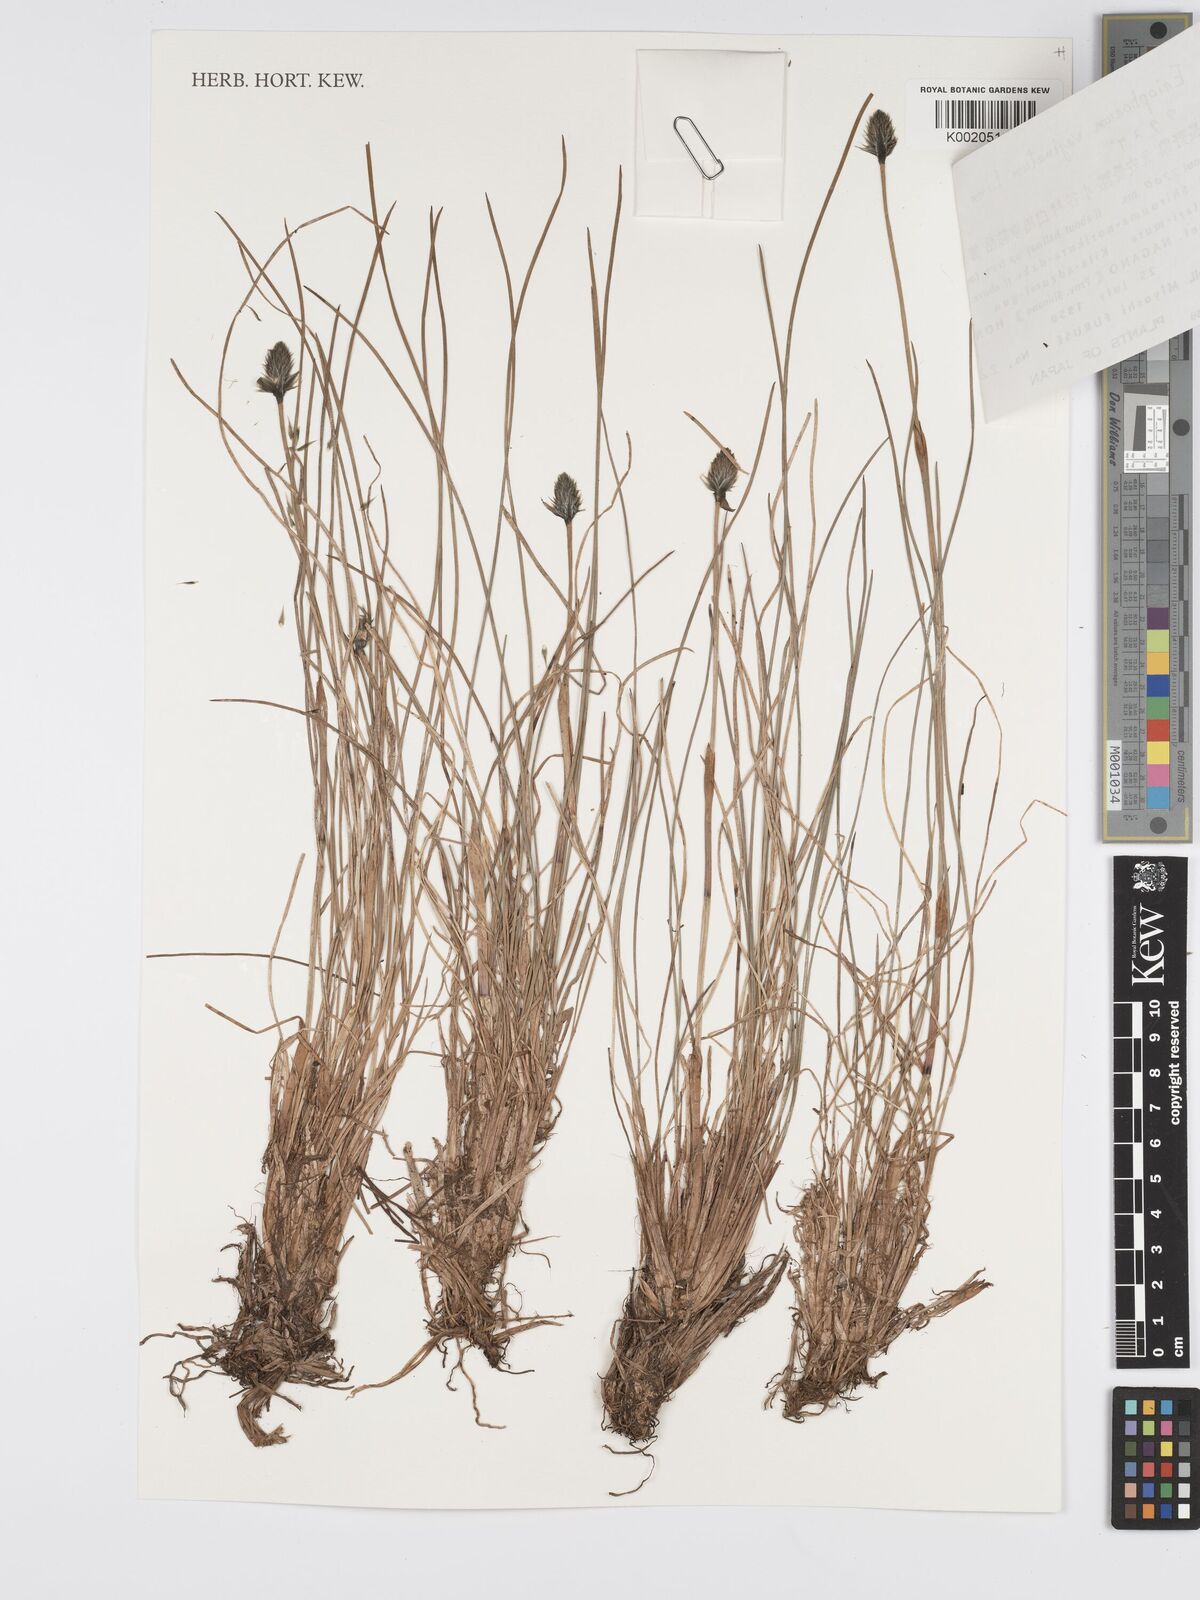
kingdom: Plantae
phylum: Tracheophyta
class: Liliopsida
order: Poales
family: Cyperaceae
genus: Eriophorum
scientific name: Eriophorum vaginatum
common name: Hare's-tail cottongrass
